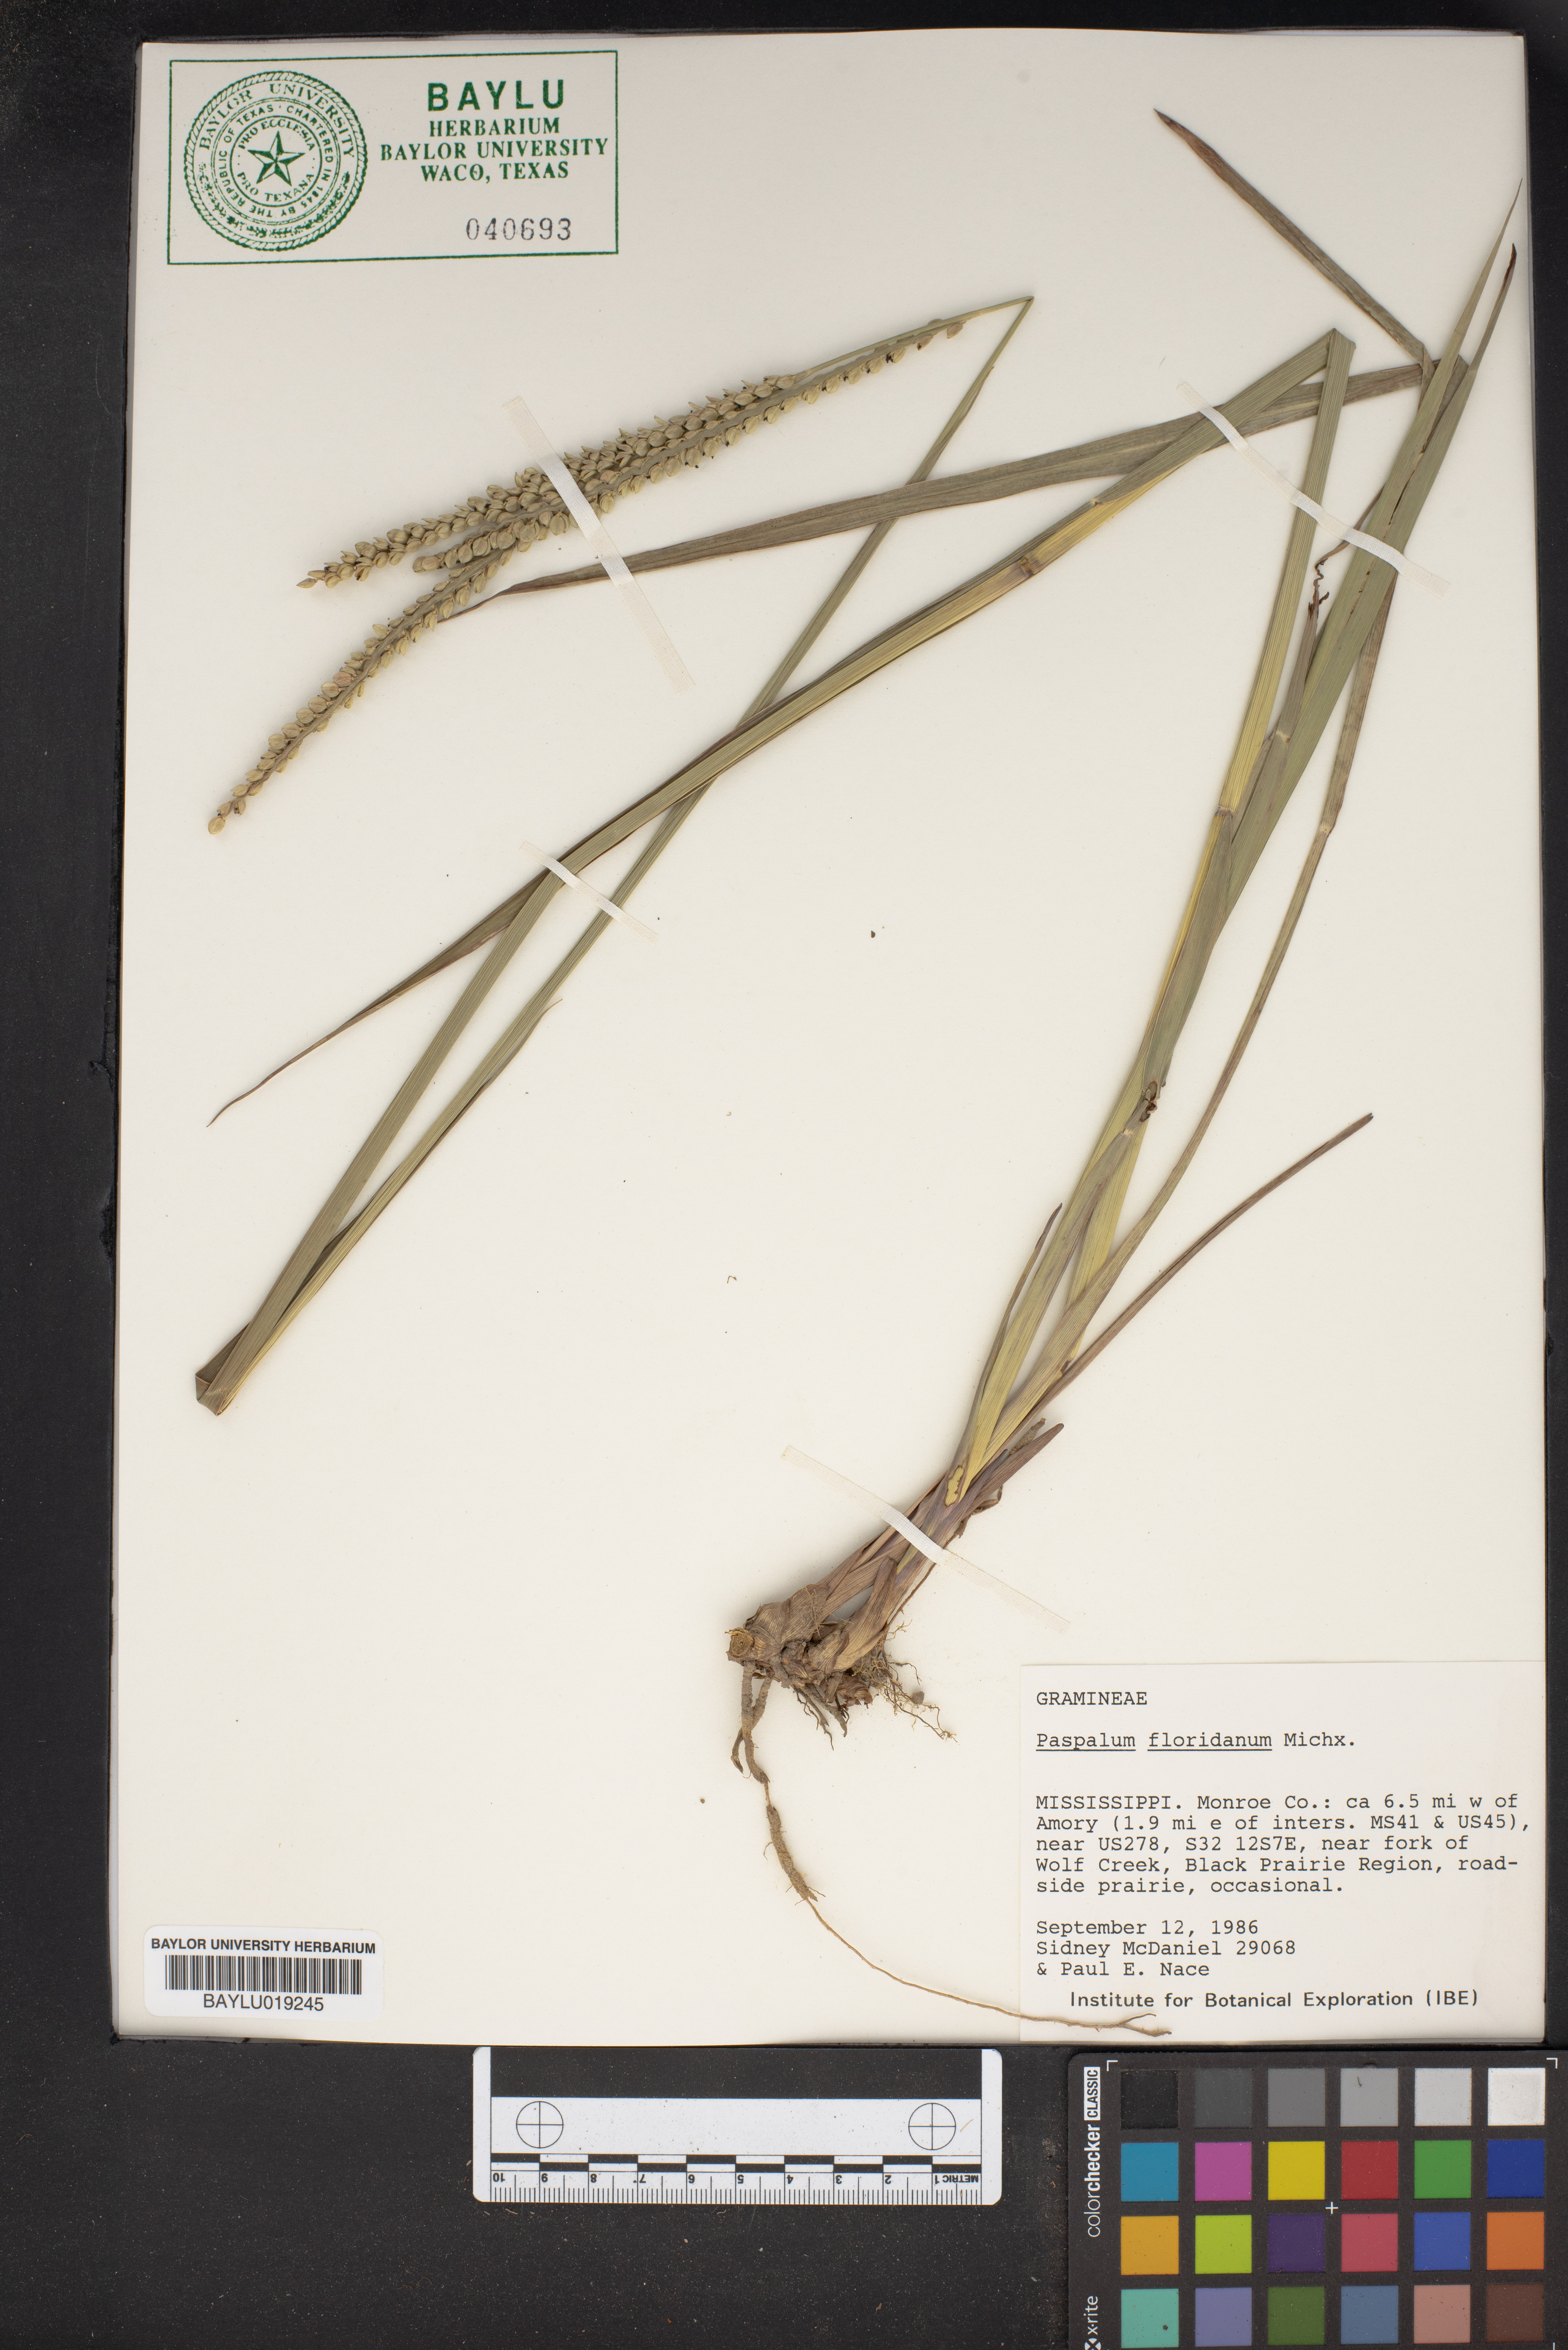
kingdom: Plantae
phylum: Tracheophyta
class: Liliopsida
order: Poales
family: Poaceae
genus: Paspalum
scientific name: Paspalum floridanum
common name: Florida paspalum
